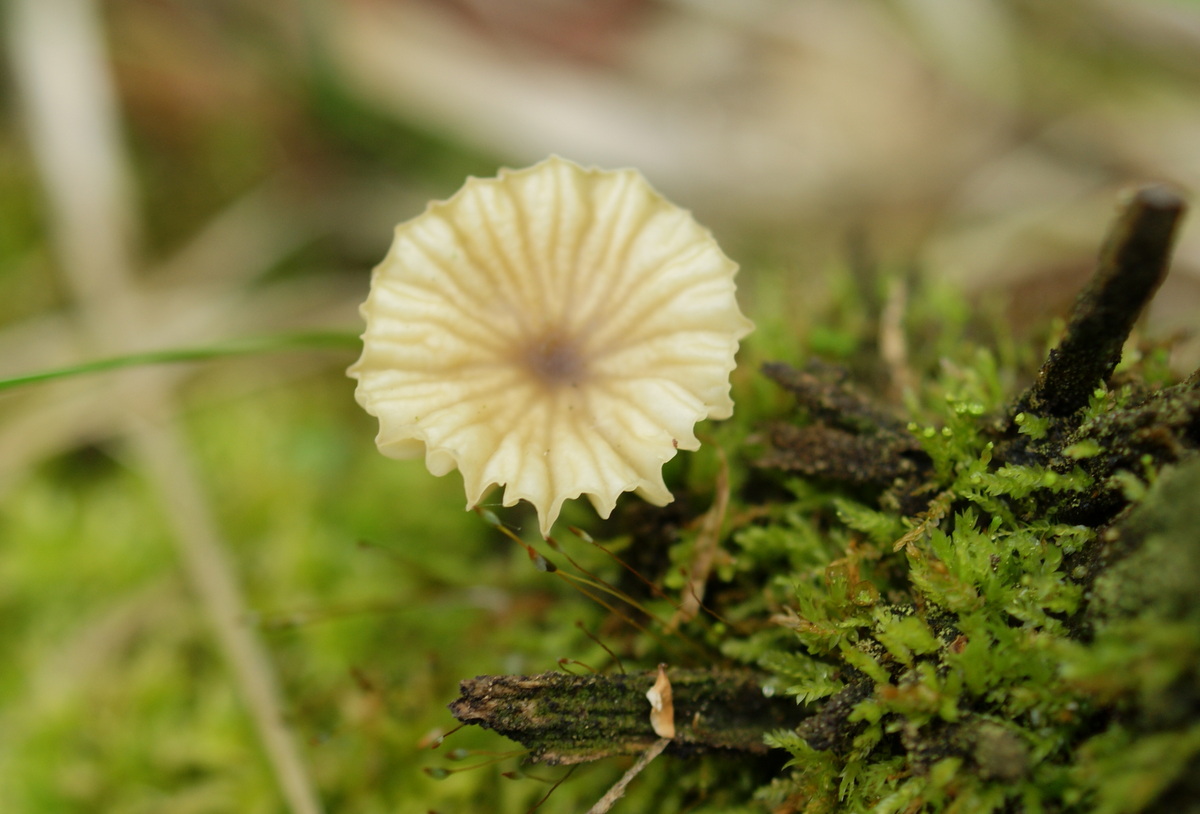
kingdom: Fungi
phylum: Basidiomycota
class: Agaricomycetes
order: Agaricales
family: Hygrophoraceae
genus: Lichenomphalia
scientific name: Lichenomphalia umbellifera
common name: tørve-lavhat
